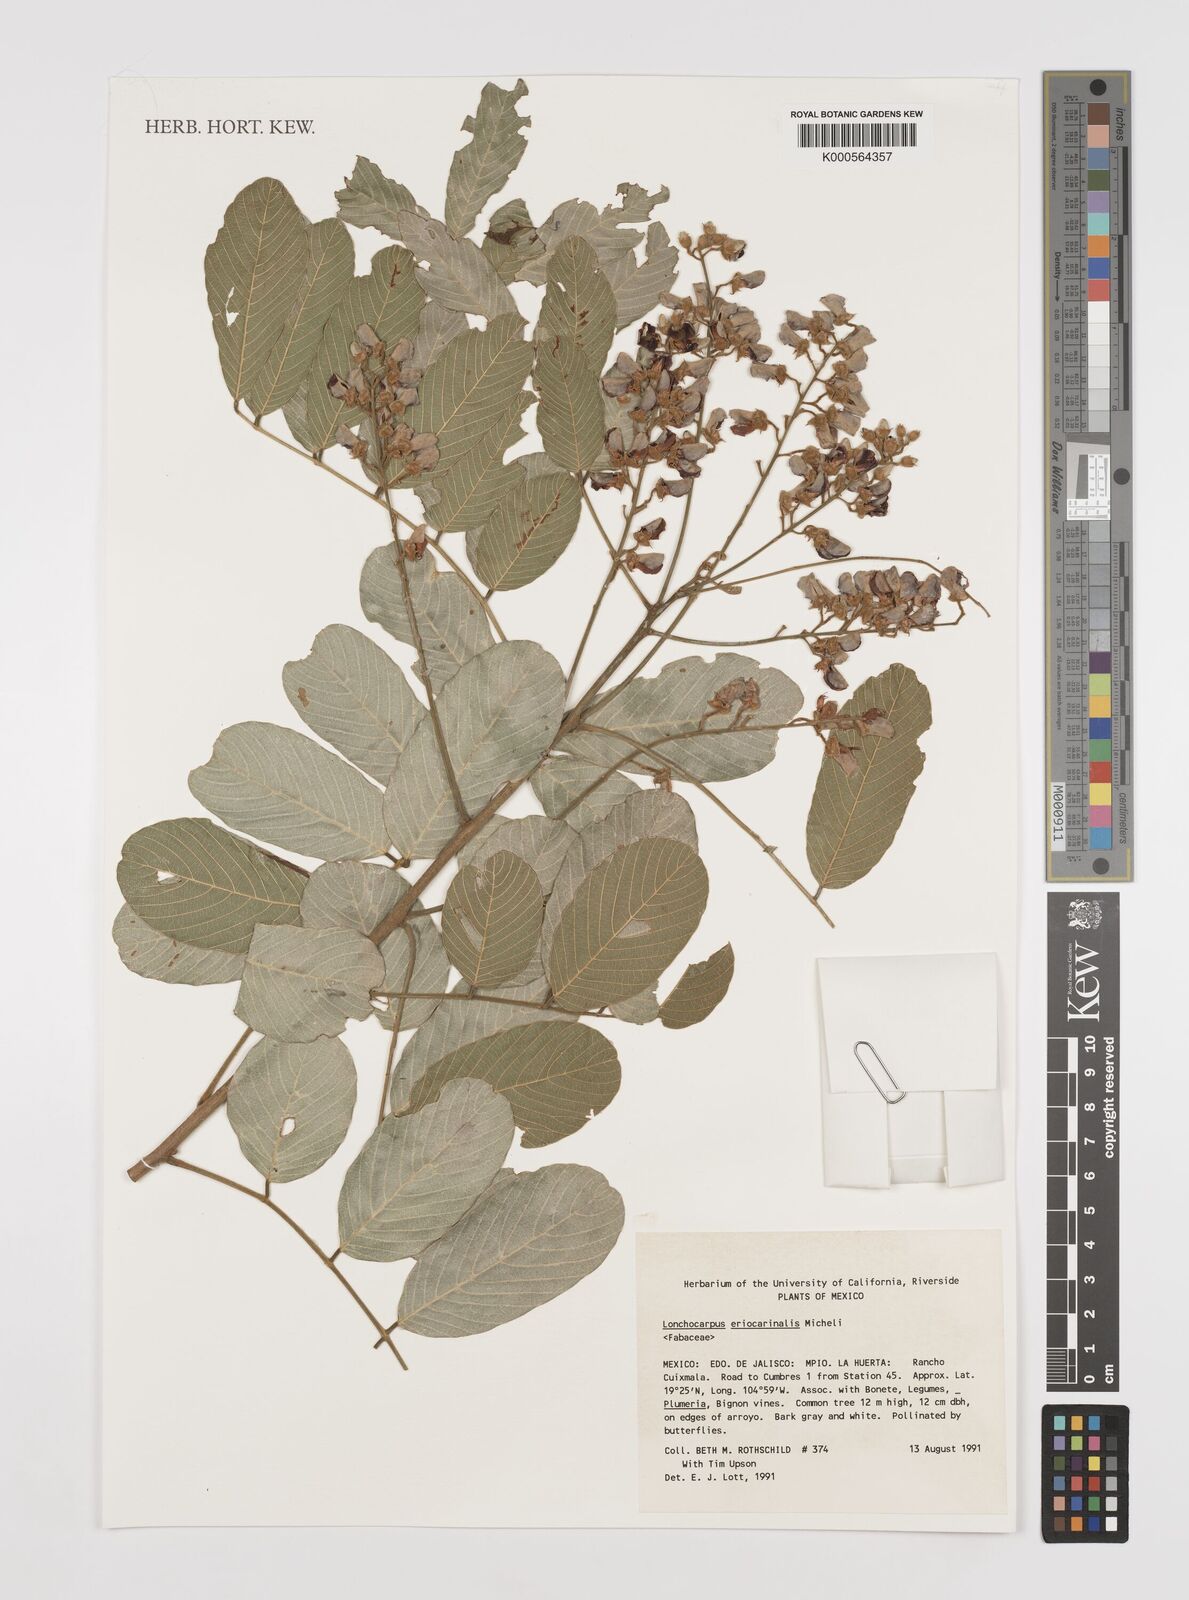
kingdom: Plantae
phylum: Tracheophyta
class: Magnoliopsida
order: Fabales
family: Fabaceae
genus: Lonchocarpus
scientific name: Lonchocarpus eriocarinalis
